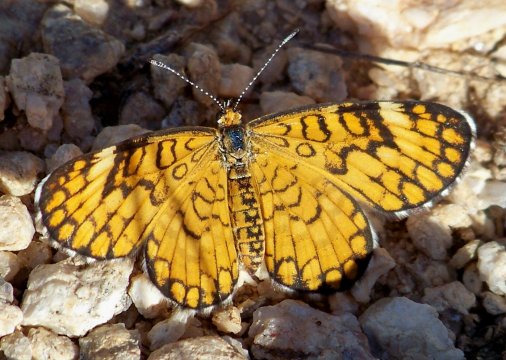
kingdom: Animalia
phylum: Arthropoda
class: Insecta
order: Lepidoptera
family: Nymphalidae
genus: Dymasia
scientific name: Dymasia dymas
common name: Tiny Checkerspot
